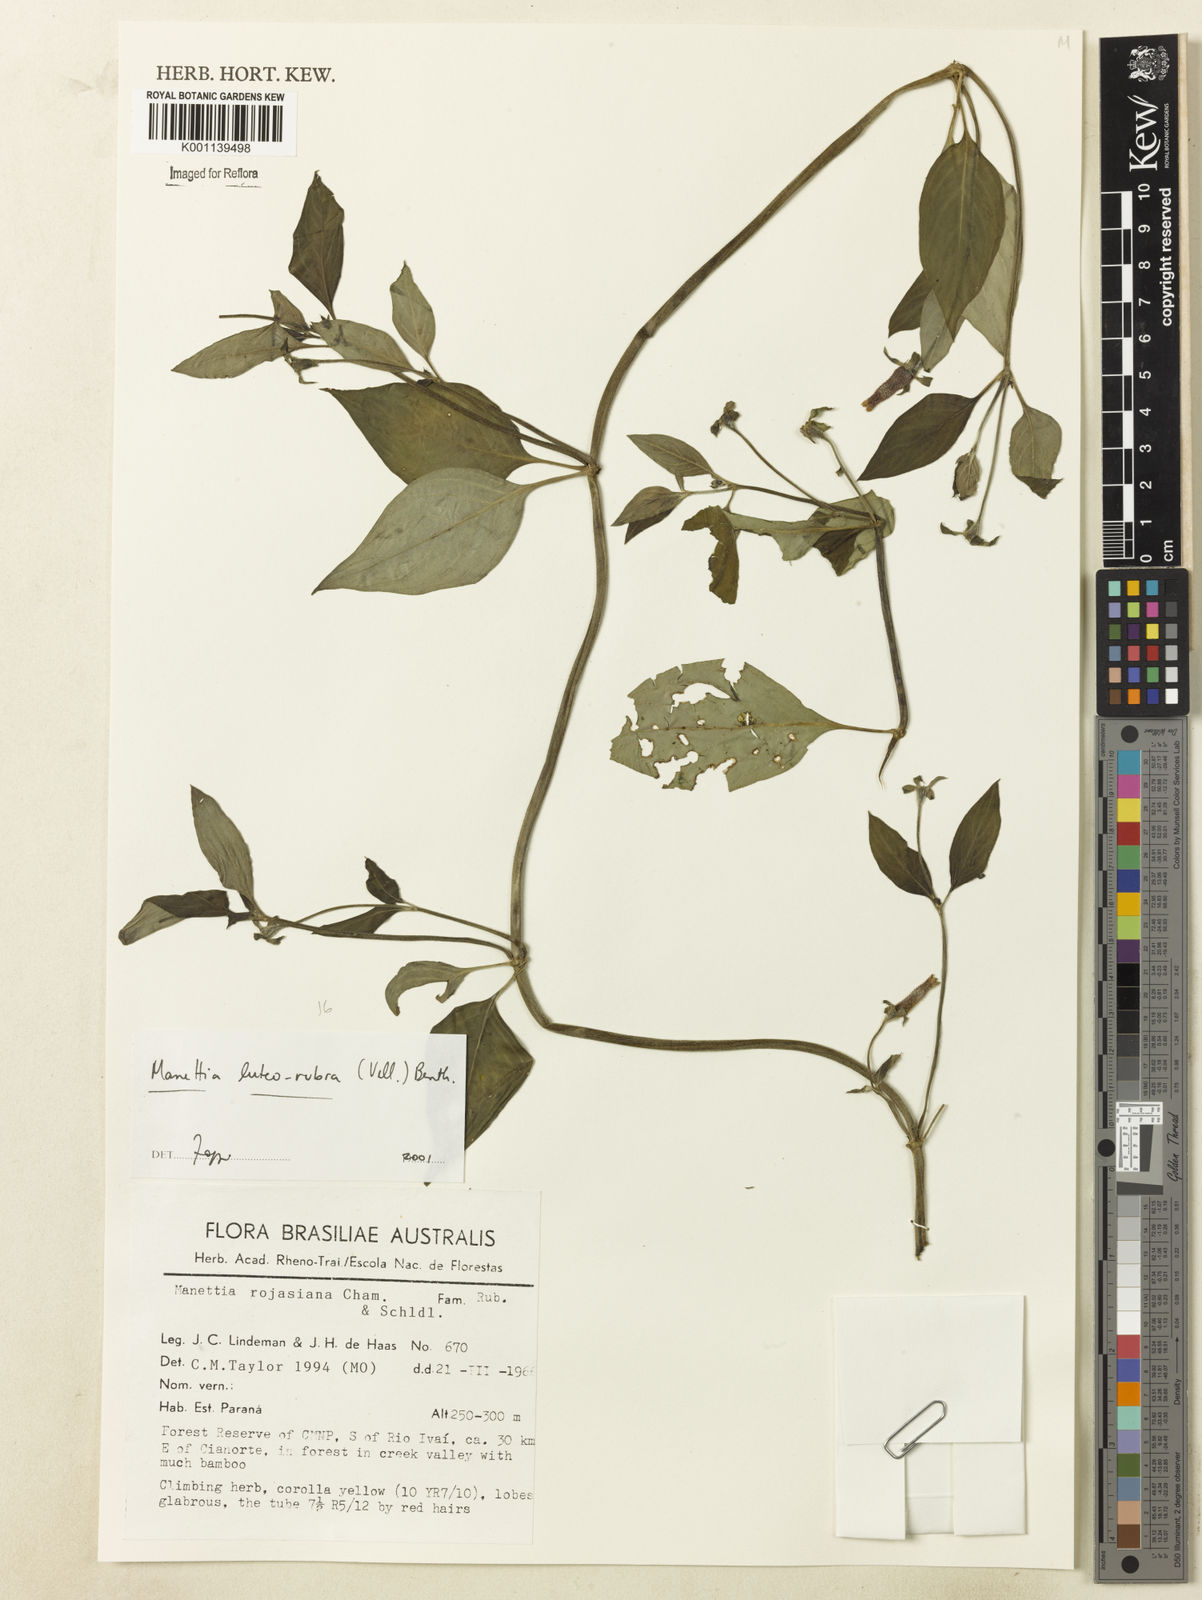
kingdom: Plantae
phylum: Tracheophyta
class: Magnoliopsida
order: Gentianales
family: Rubiaceae
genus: Manettia
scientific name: Manettia luteorubra
